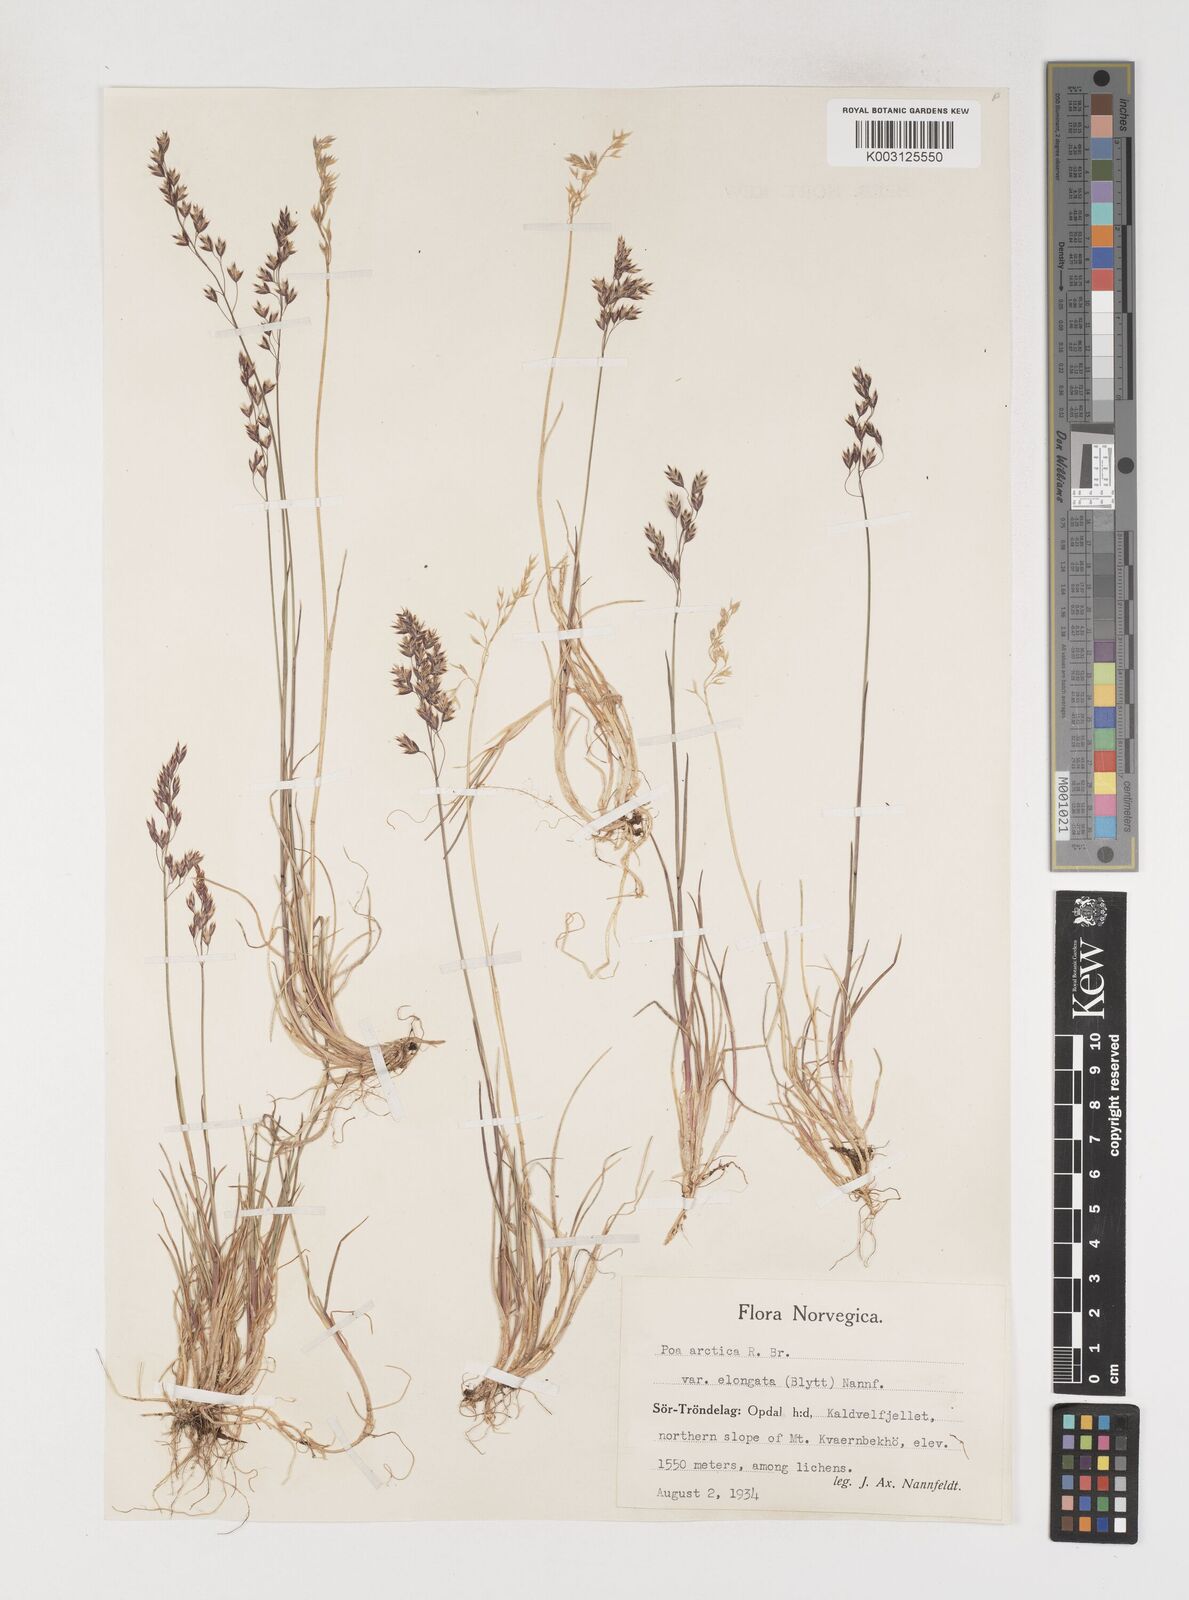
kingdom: Plantae
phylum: Tracheophyta
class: Liliopsida
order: Poales
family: Poaceae
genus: Poa
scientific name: Poa arctica
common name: Arctic bluegrass
